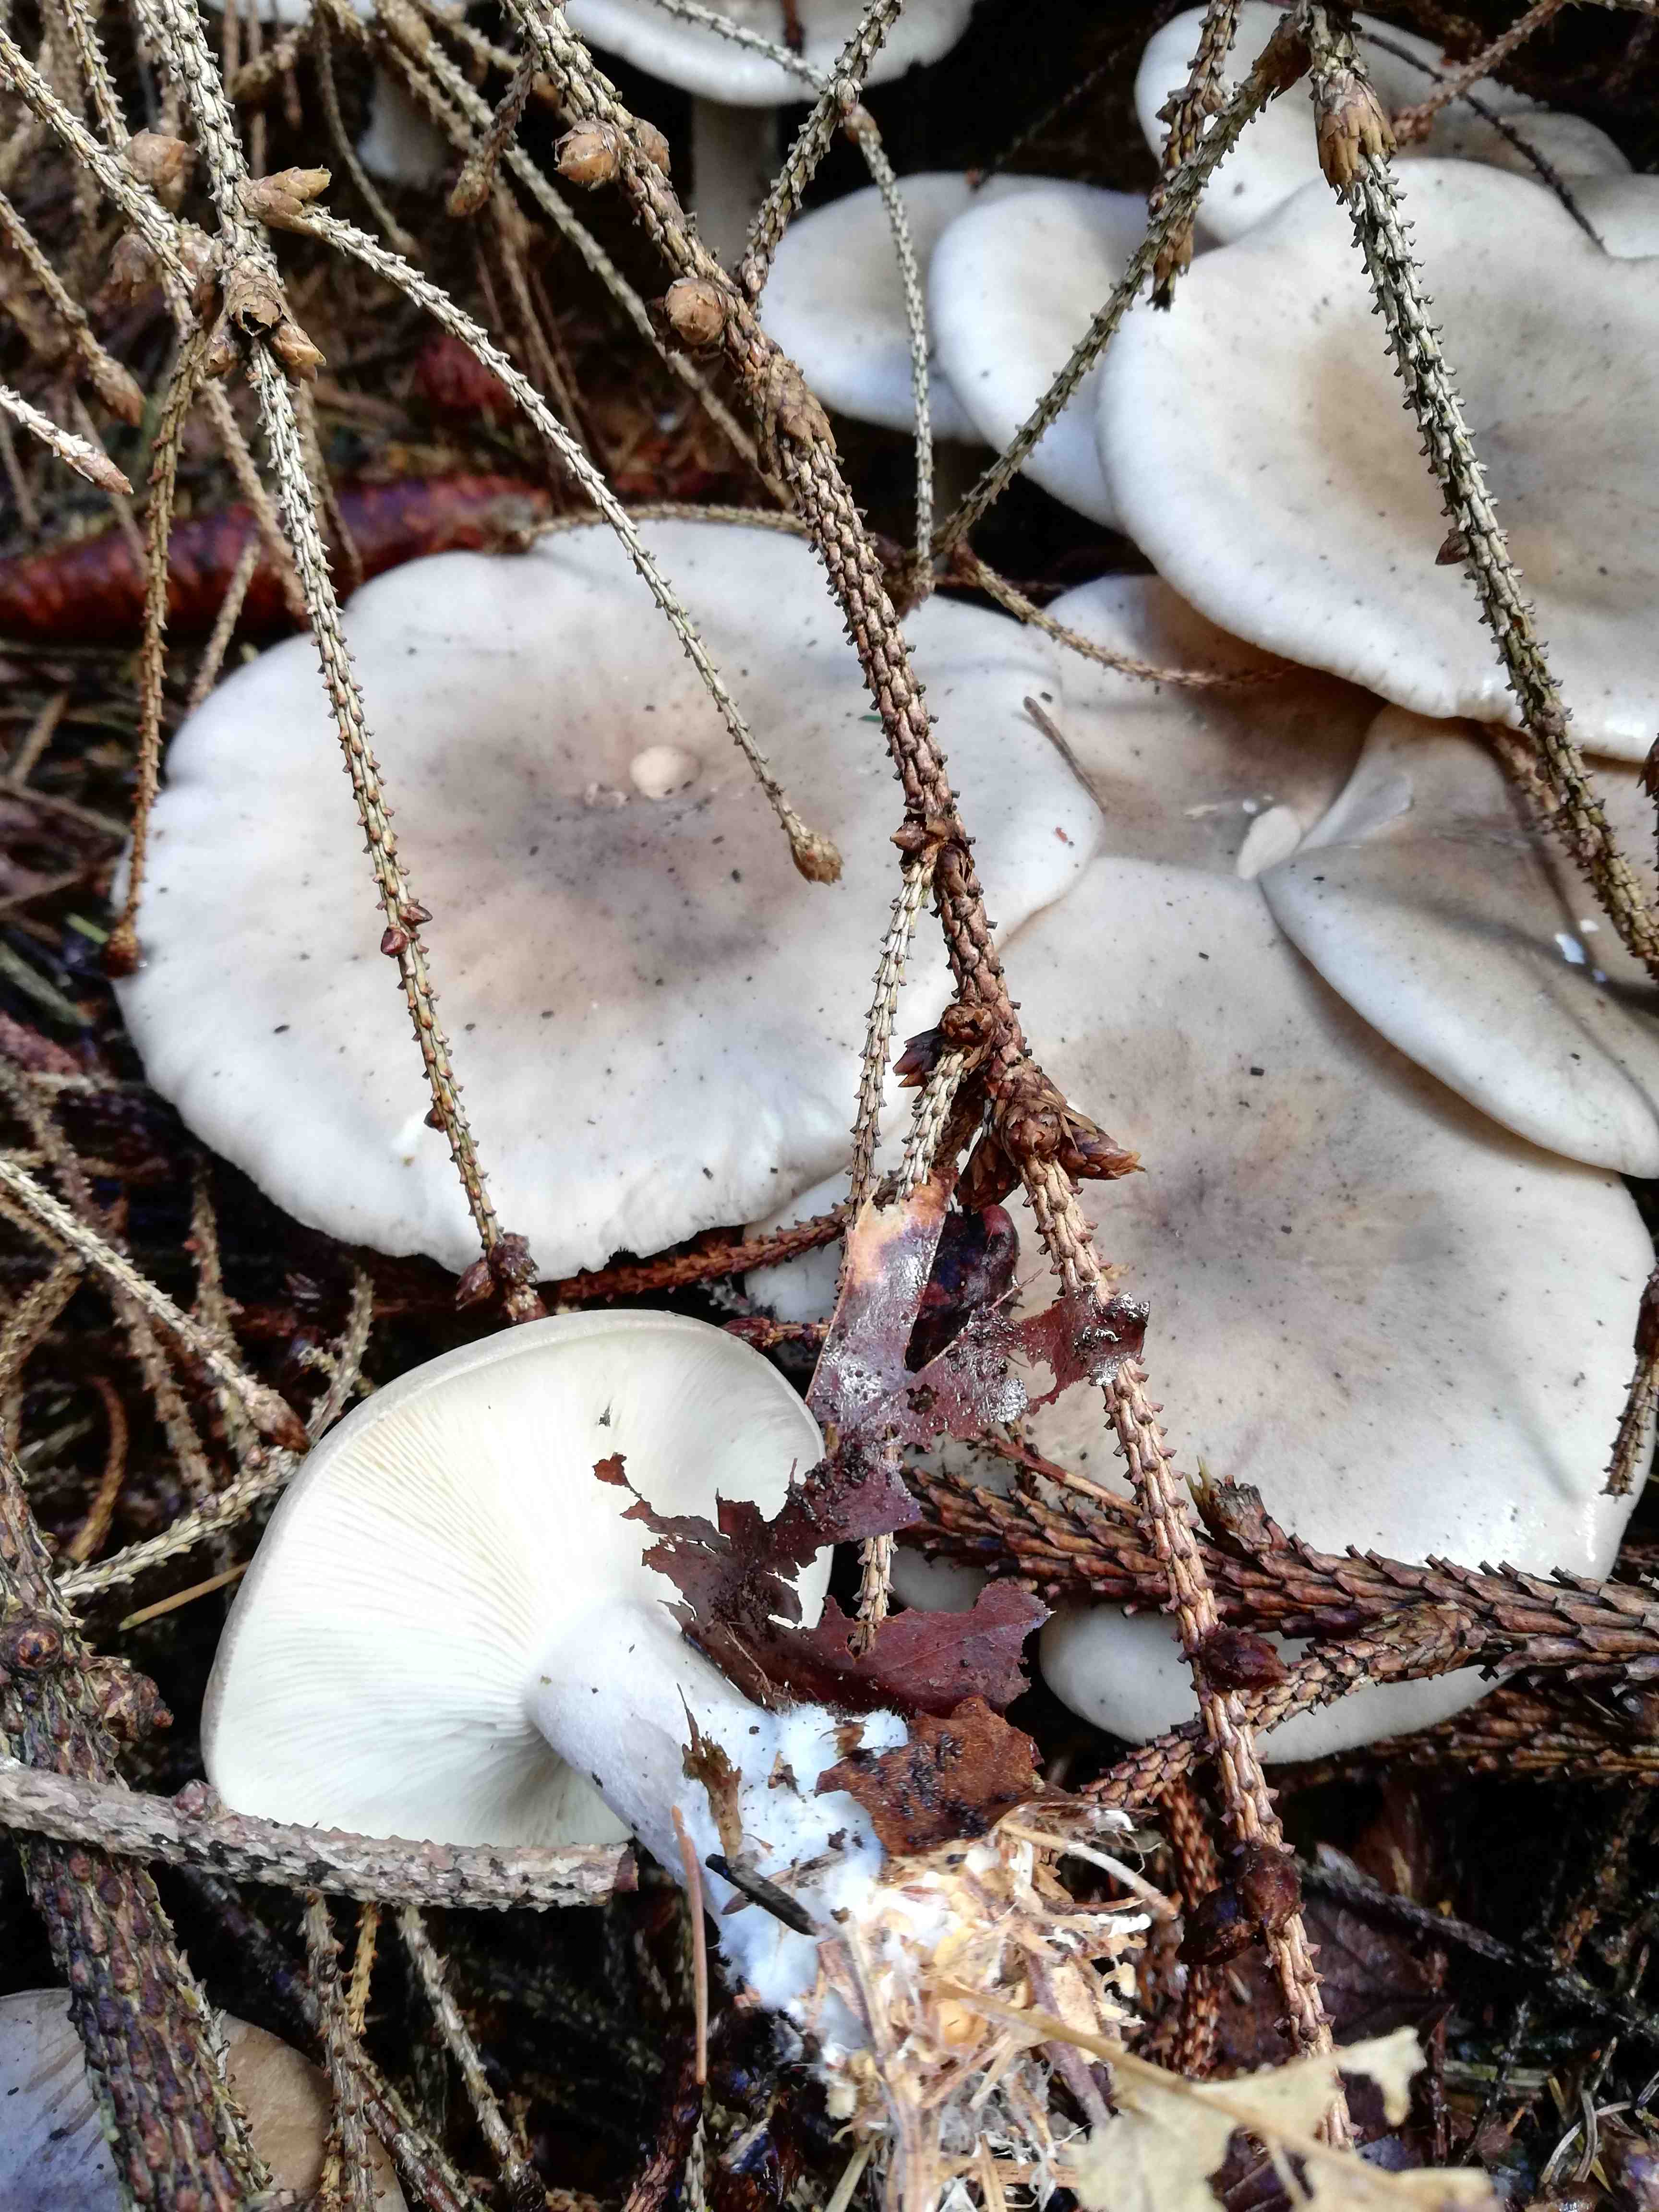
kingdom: Fungi
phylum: Basidiomycota
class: Agaricomycetes
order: Agaricales
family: Tricholomataceae
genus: Clitocybe
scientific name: Clitocybe nebularis
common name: tåge-tragthat
